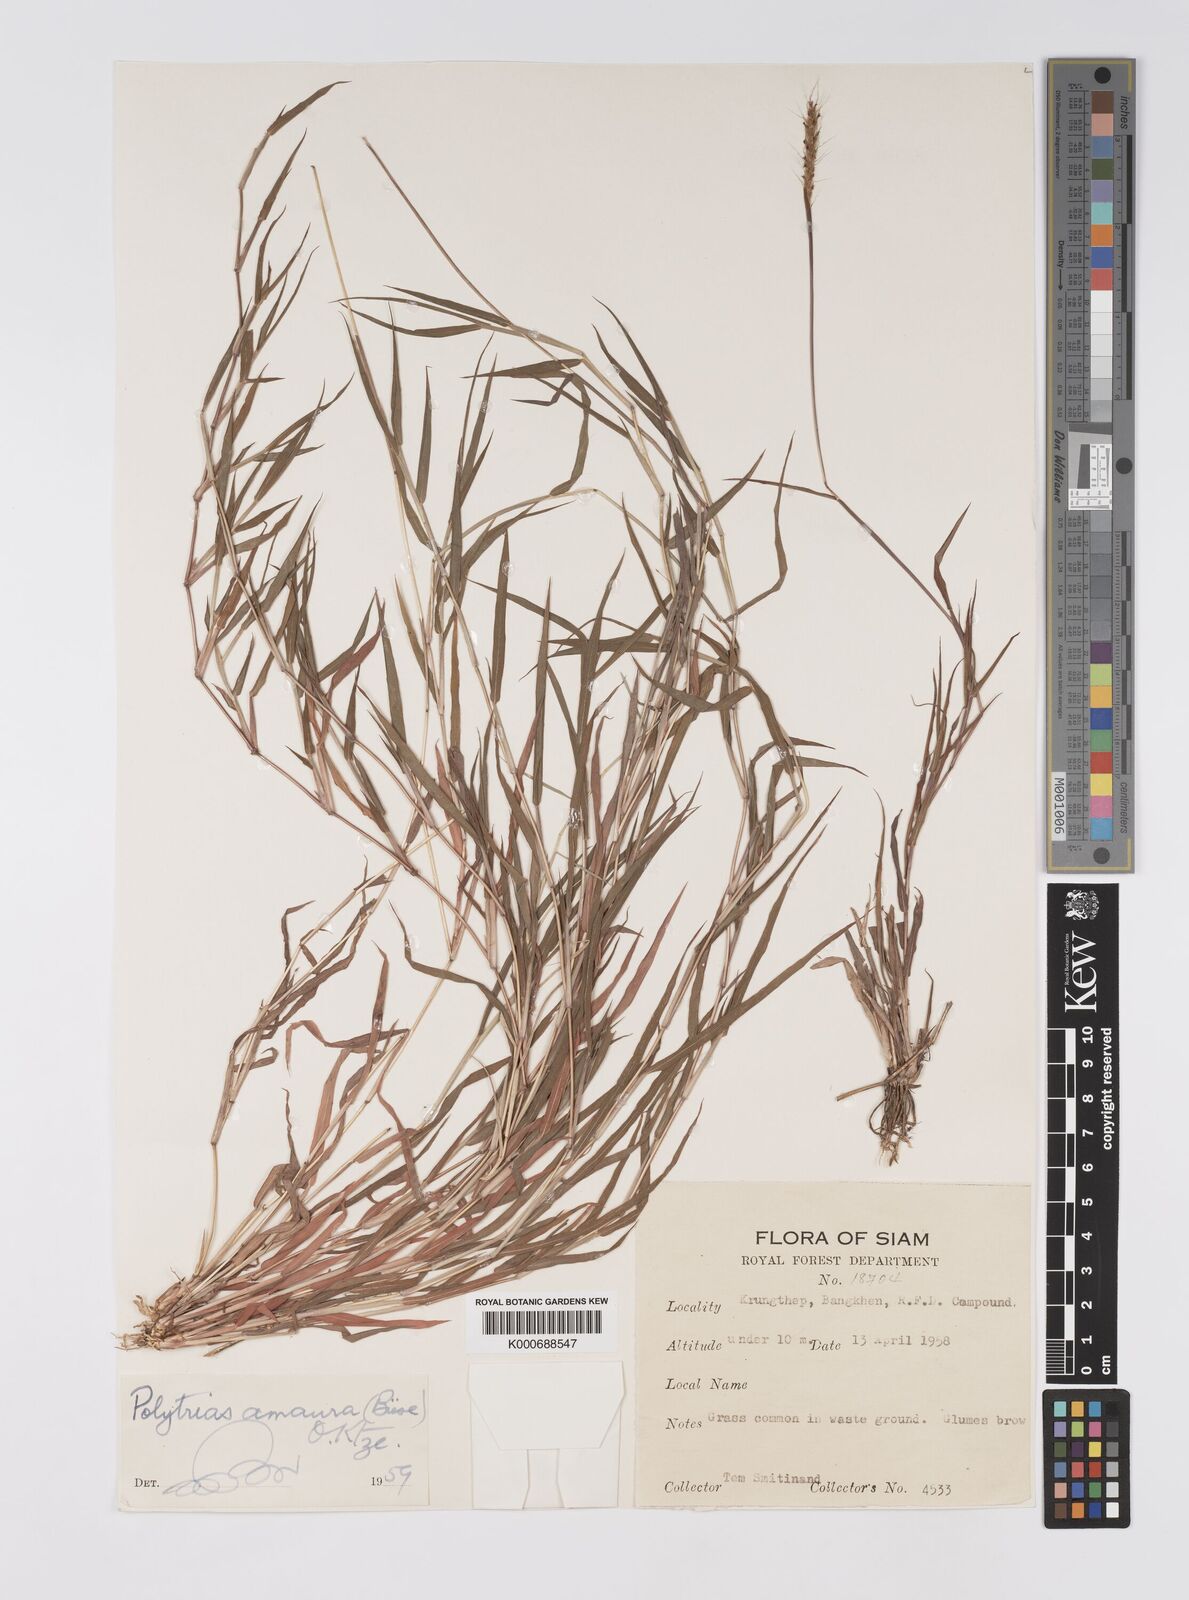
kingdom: Plantae
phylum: Tracheophyta
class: Liliopsida
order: Poales
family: Poaceae
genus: Polytrias
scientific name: Polytrias indica
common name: Indian murainagrass
